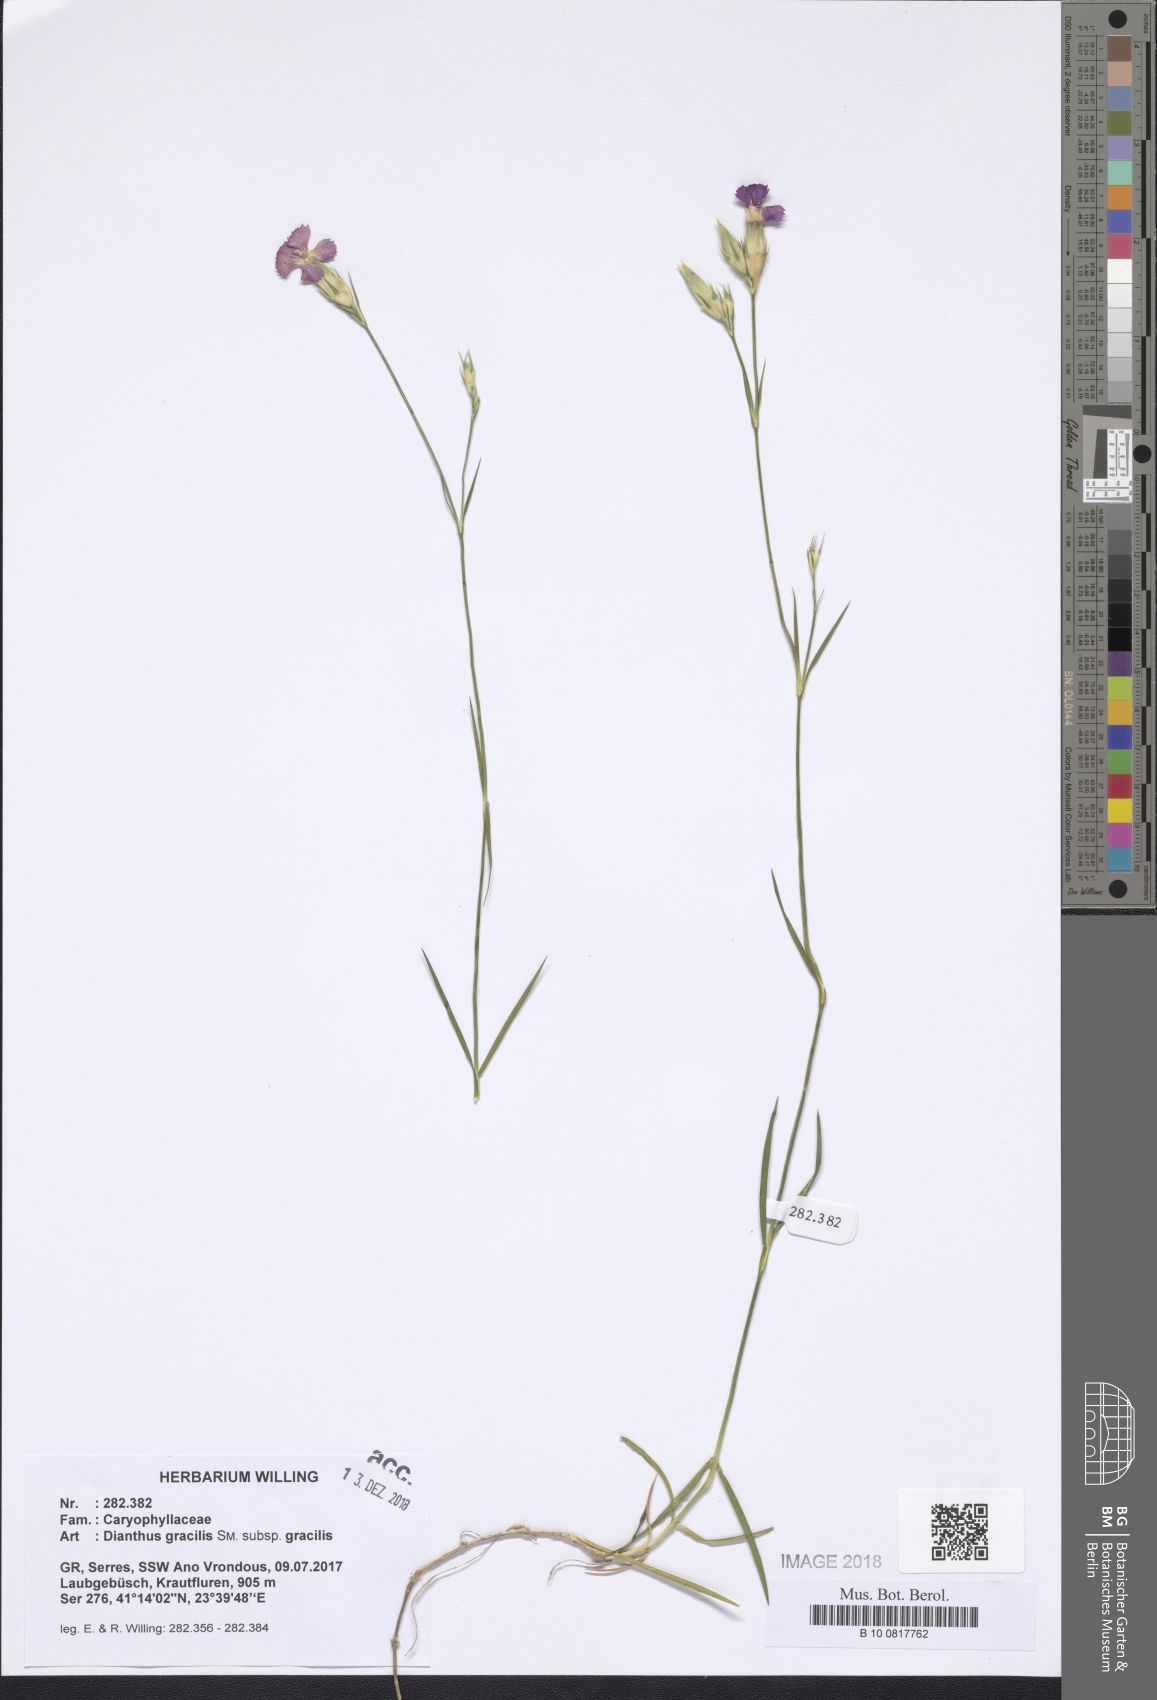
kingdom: Plantae
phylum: Tracheophyta
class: Magnoliopsida
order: Caryophyllales
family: Caryophyllaceae
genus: Dianthus
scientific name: Dianthus gracilis
